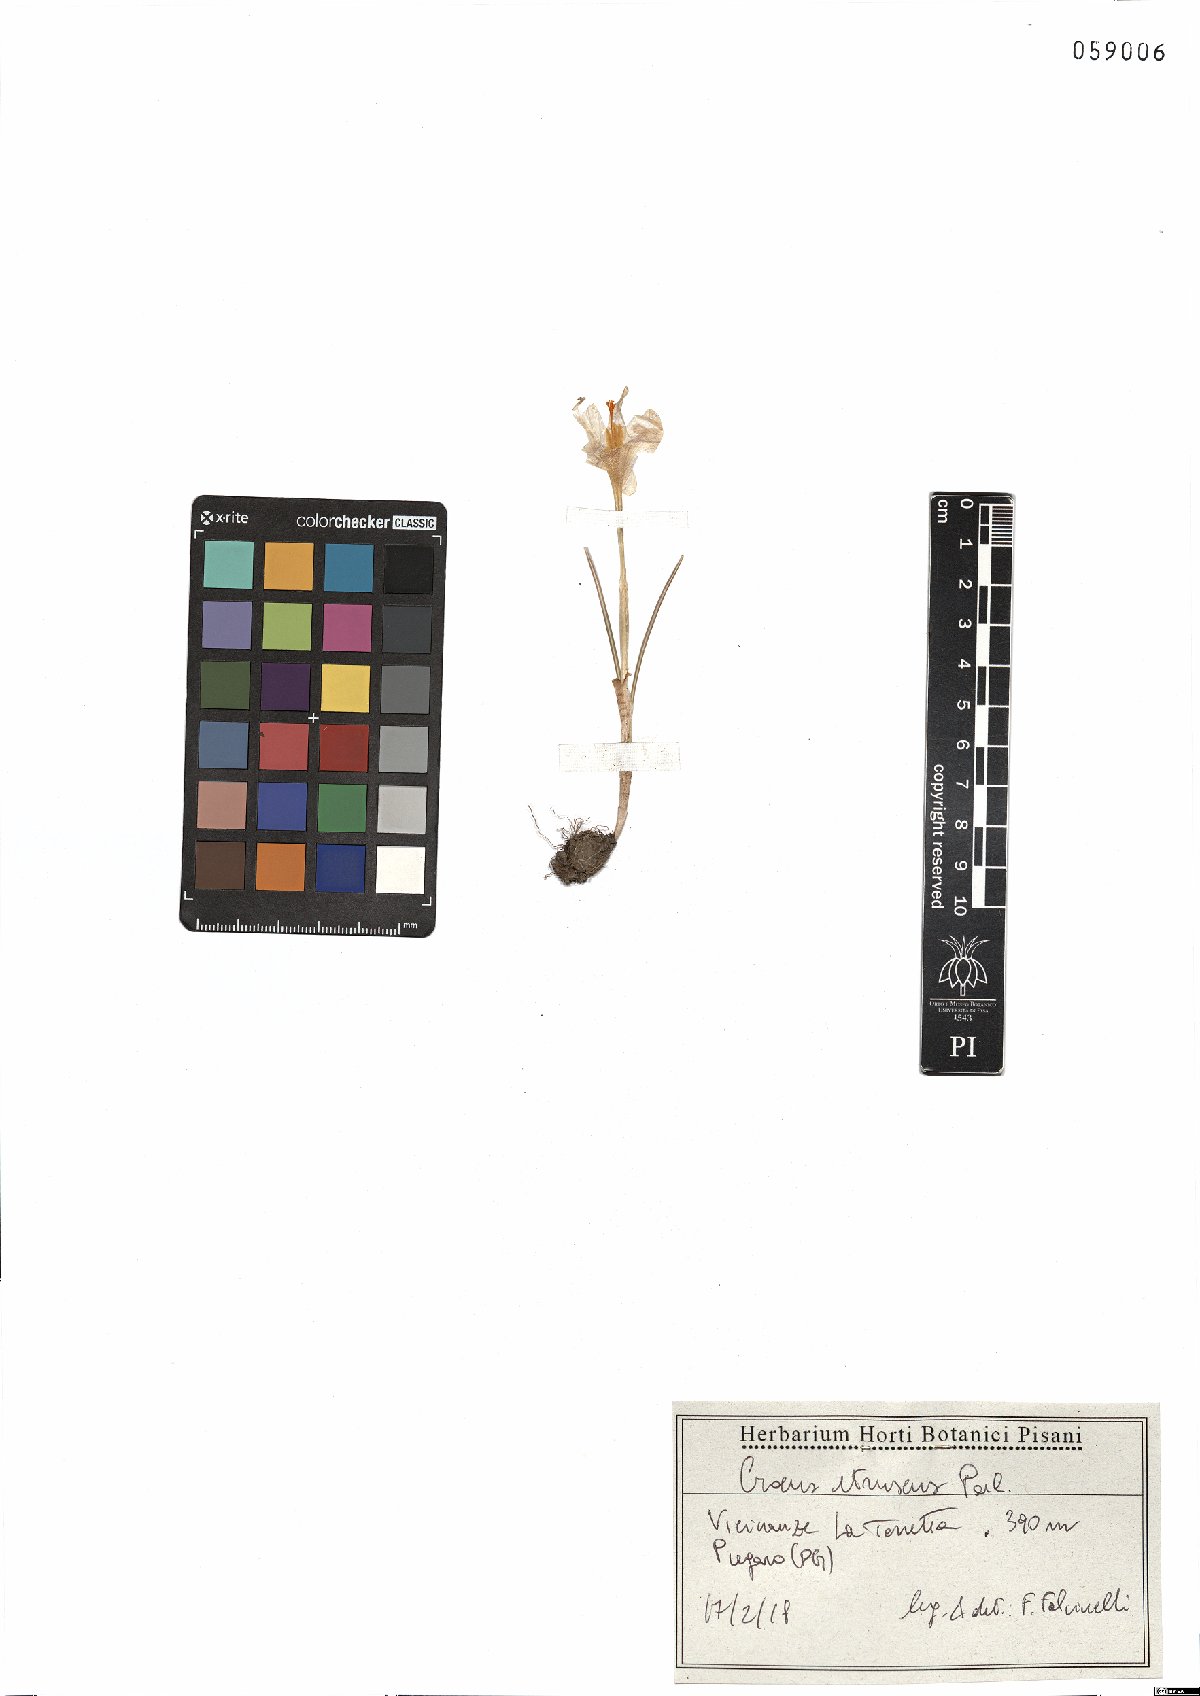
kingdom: Plantae
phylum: Tracheophyta
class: Liliopsida
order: Asparagales
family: Iridaceae
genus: Crocus
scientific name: Crocus etruscus
